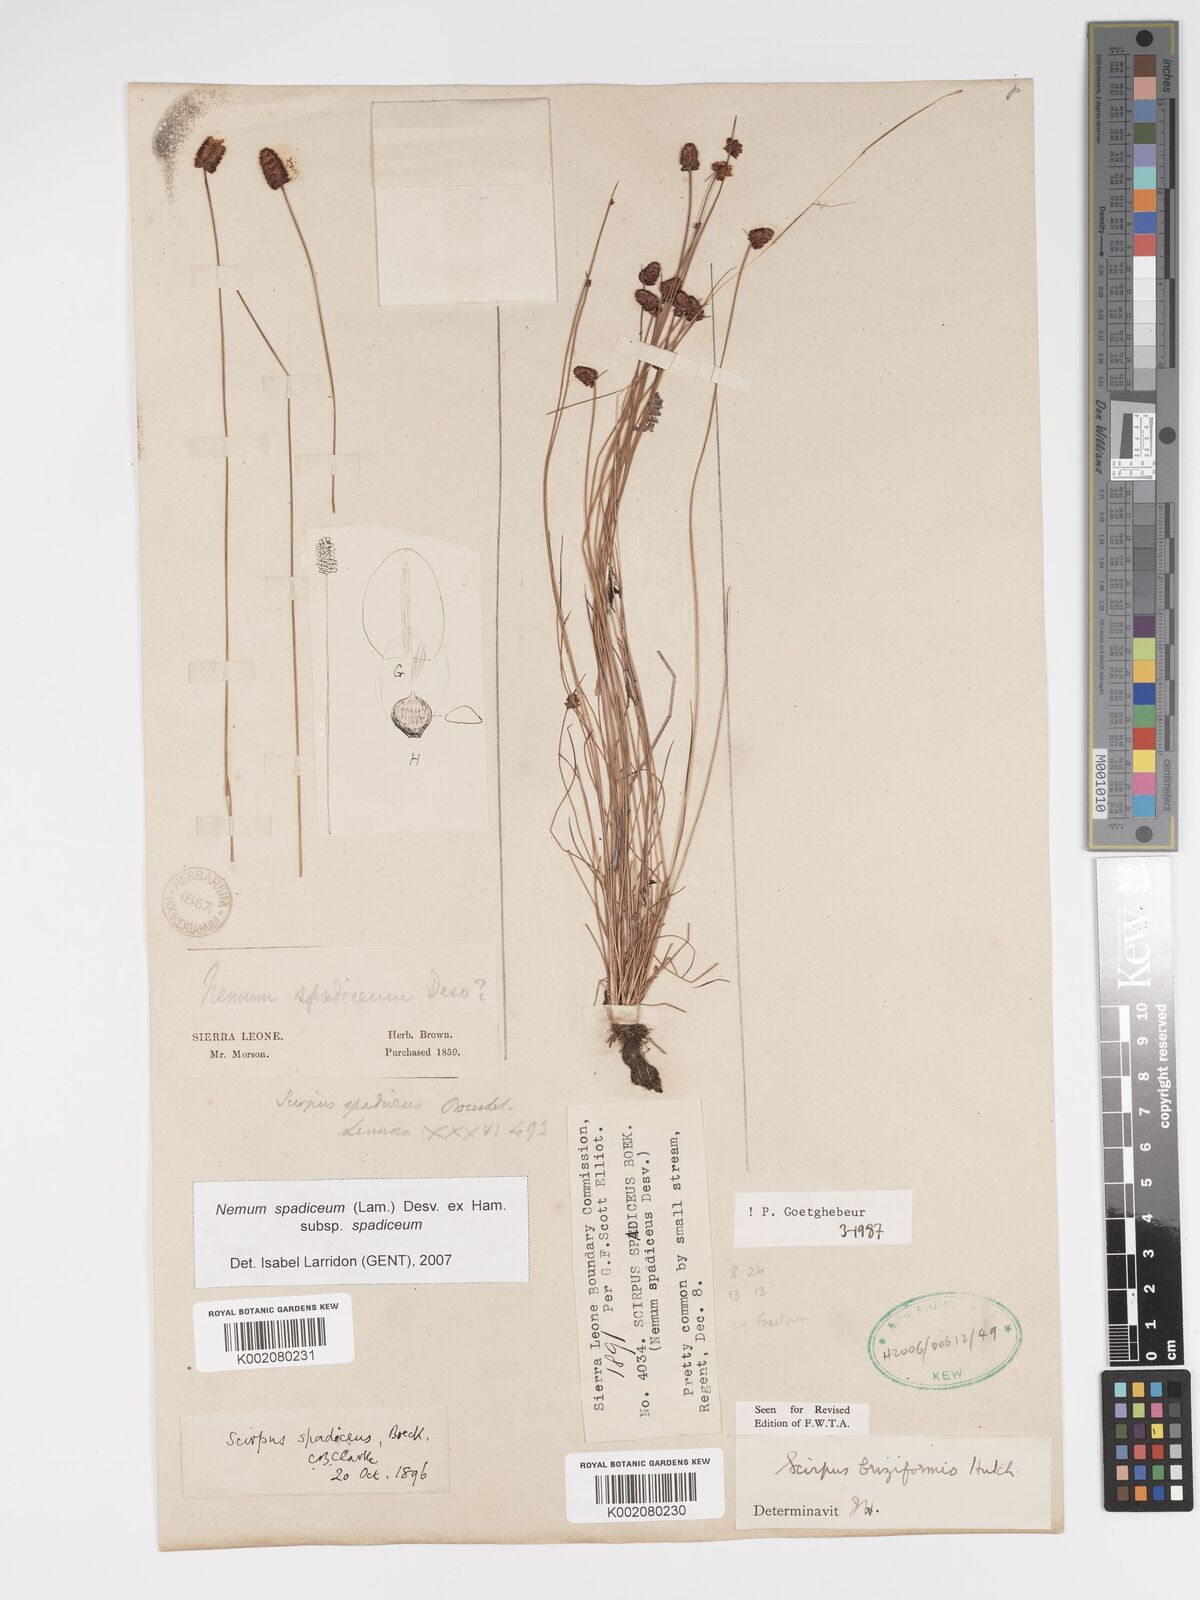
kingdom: Plantae
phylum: Tracheophyta
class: Liliopsida
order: Poales
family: Cyperaceae
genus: Bulbostylis
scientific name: Bulbostylis briziformis
